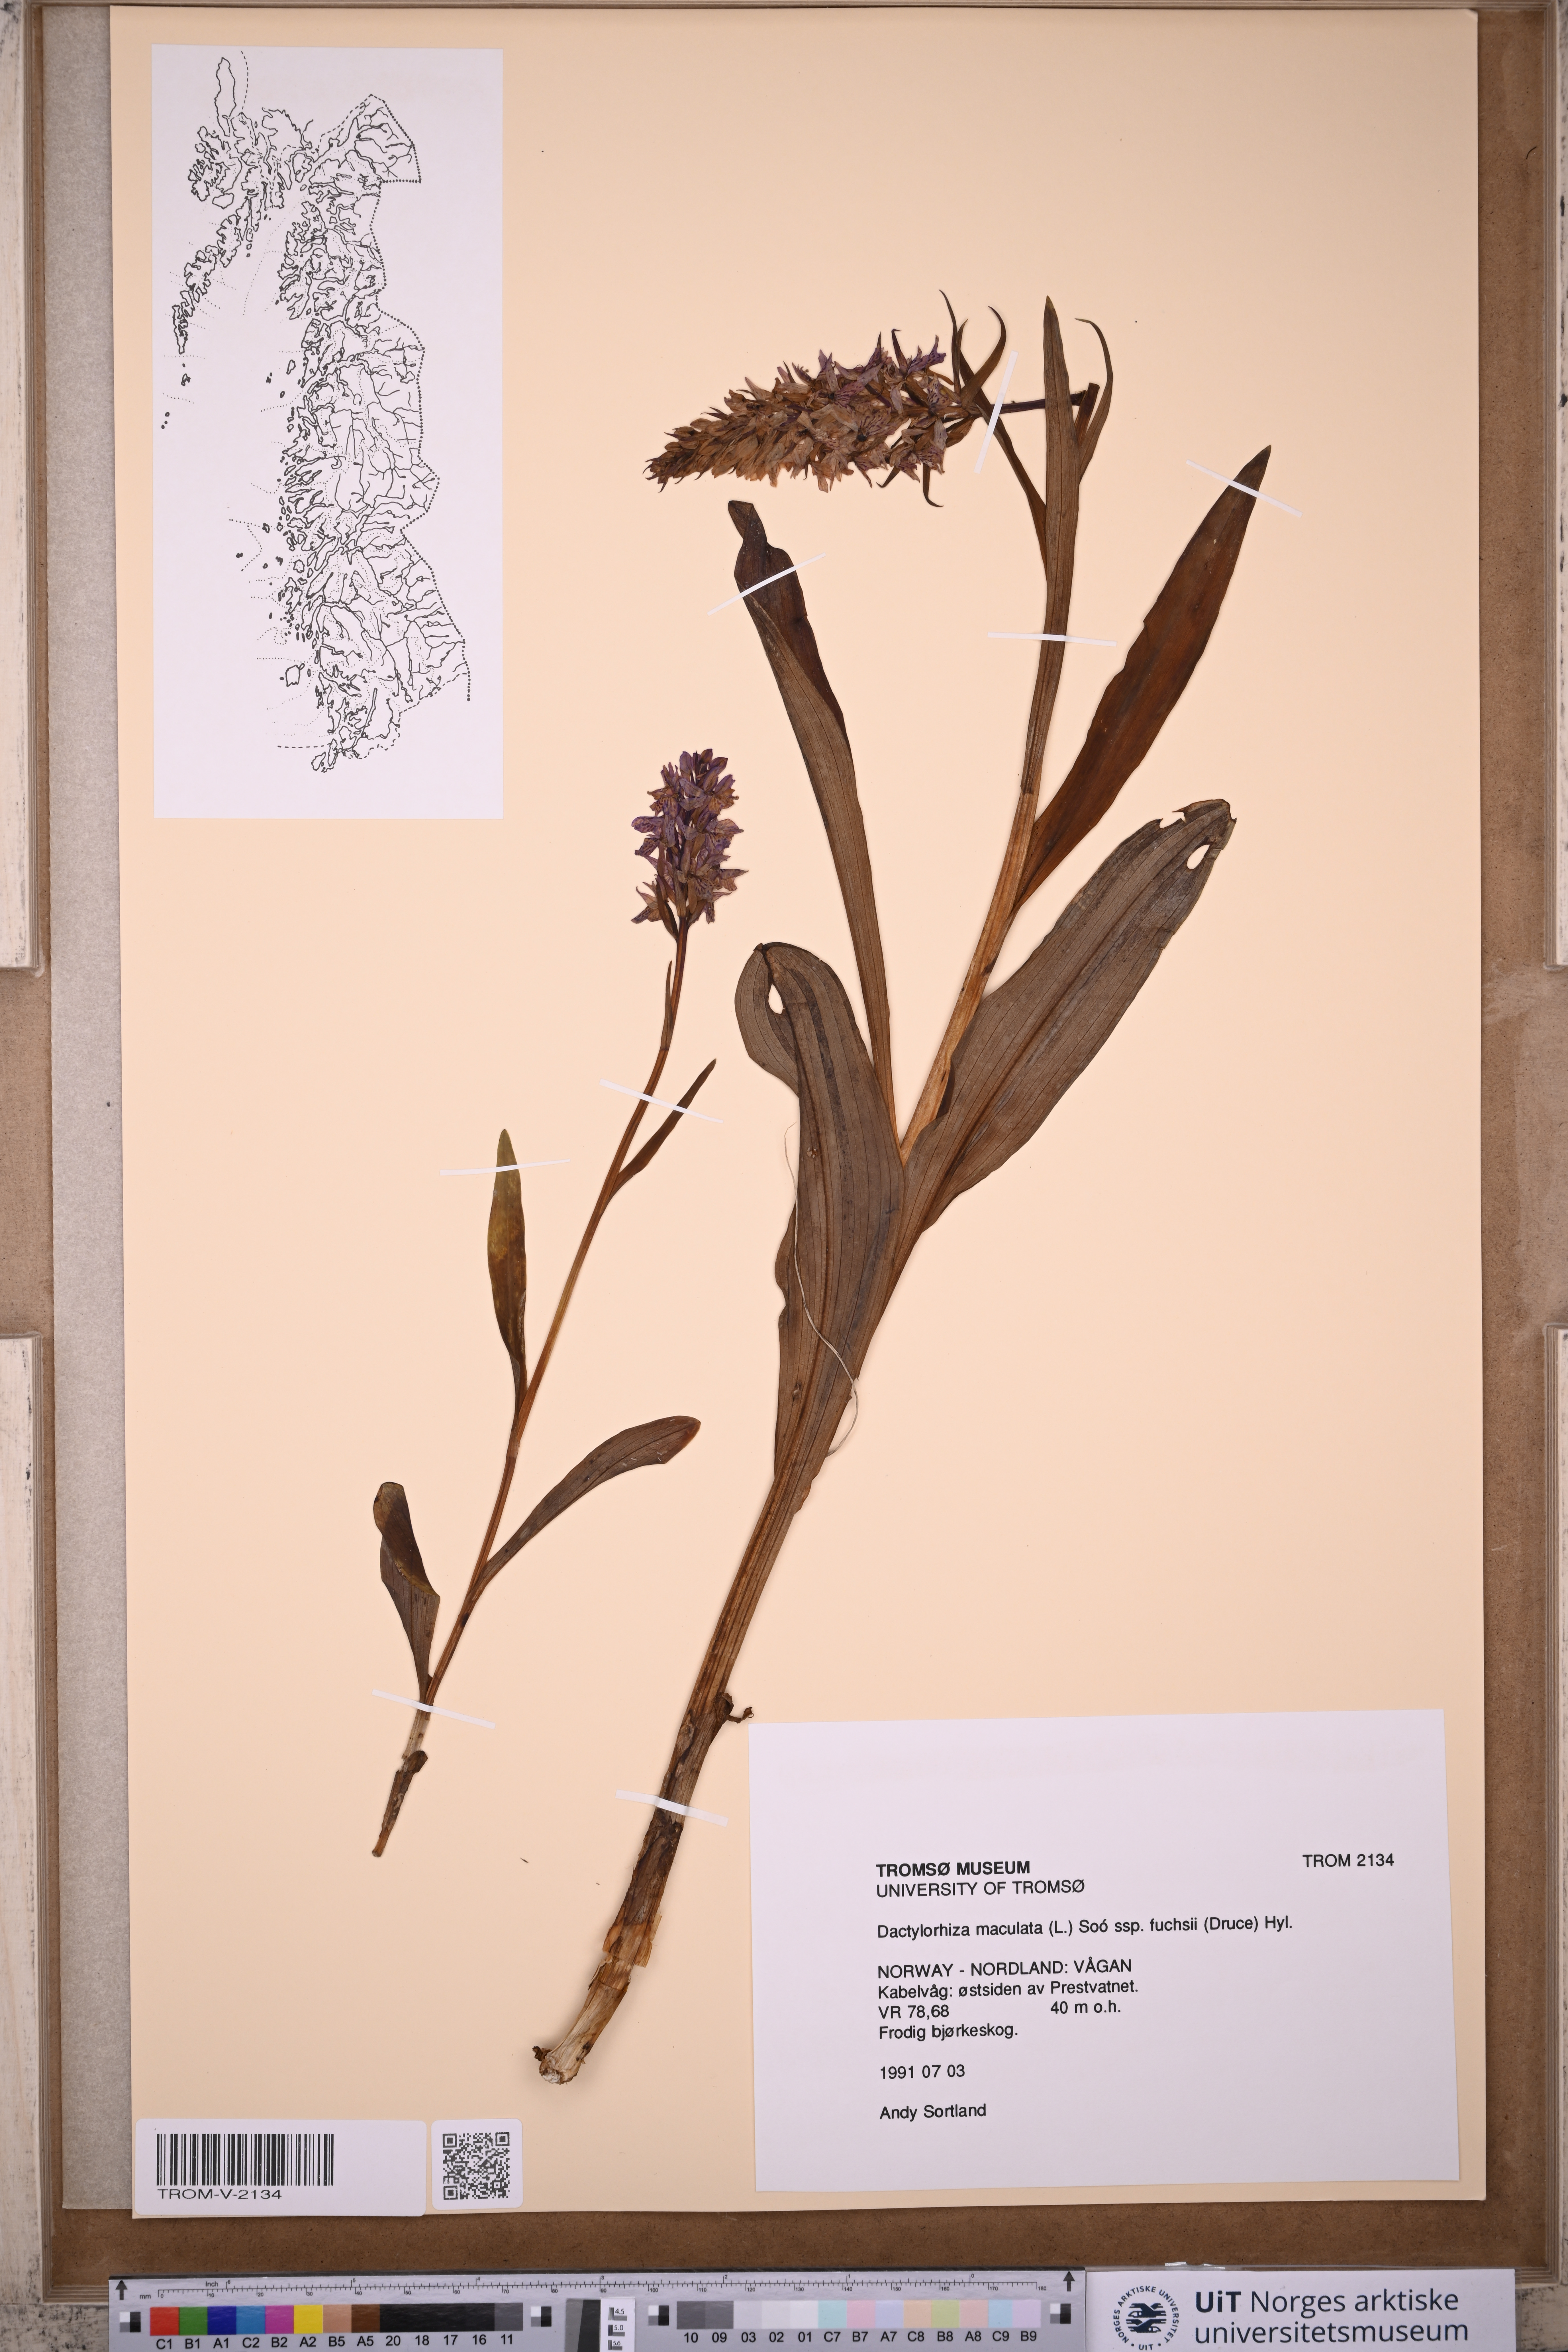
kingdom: Plantae
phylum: Tracheophyta
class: Liliopsida
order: Asparagales
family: Orchidaceae
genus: Dactylorhiza
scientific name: Dactylorhiza maculata
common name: Heath spotted-orchid
